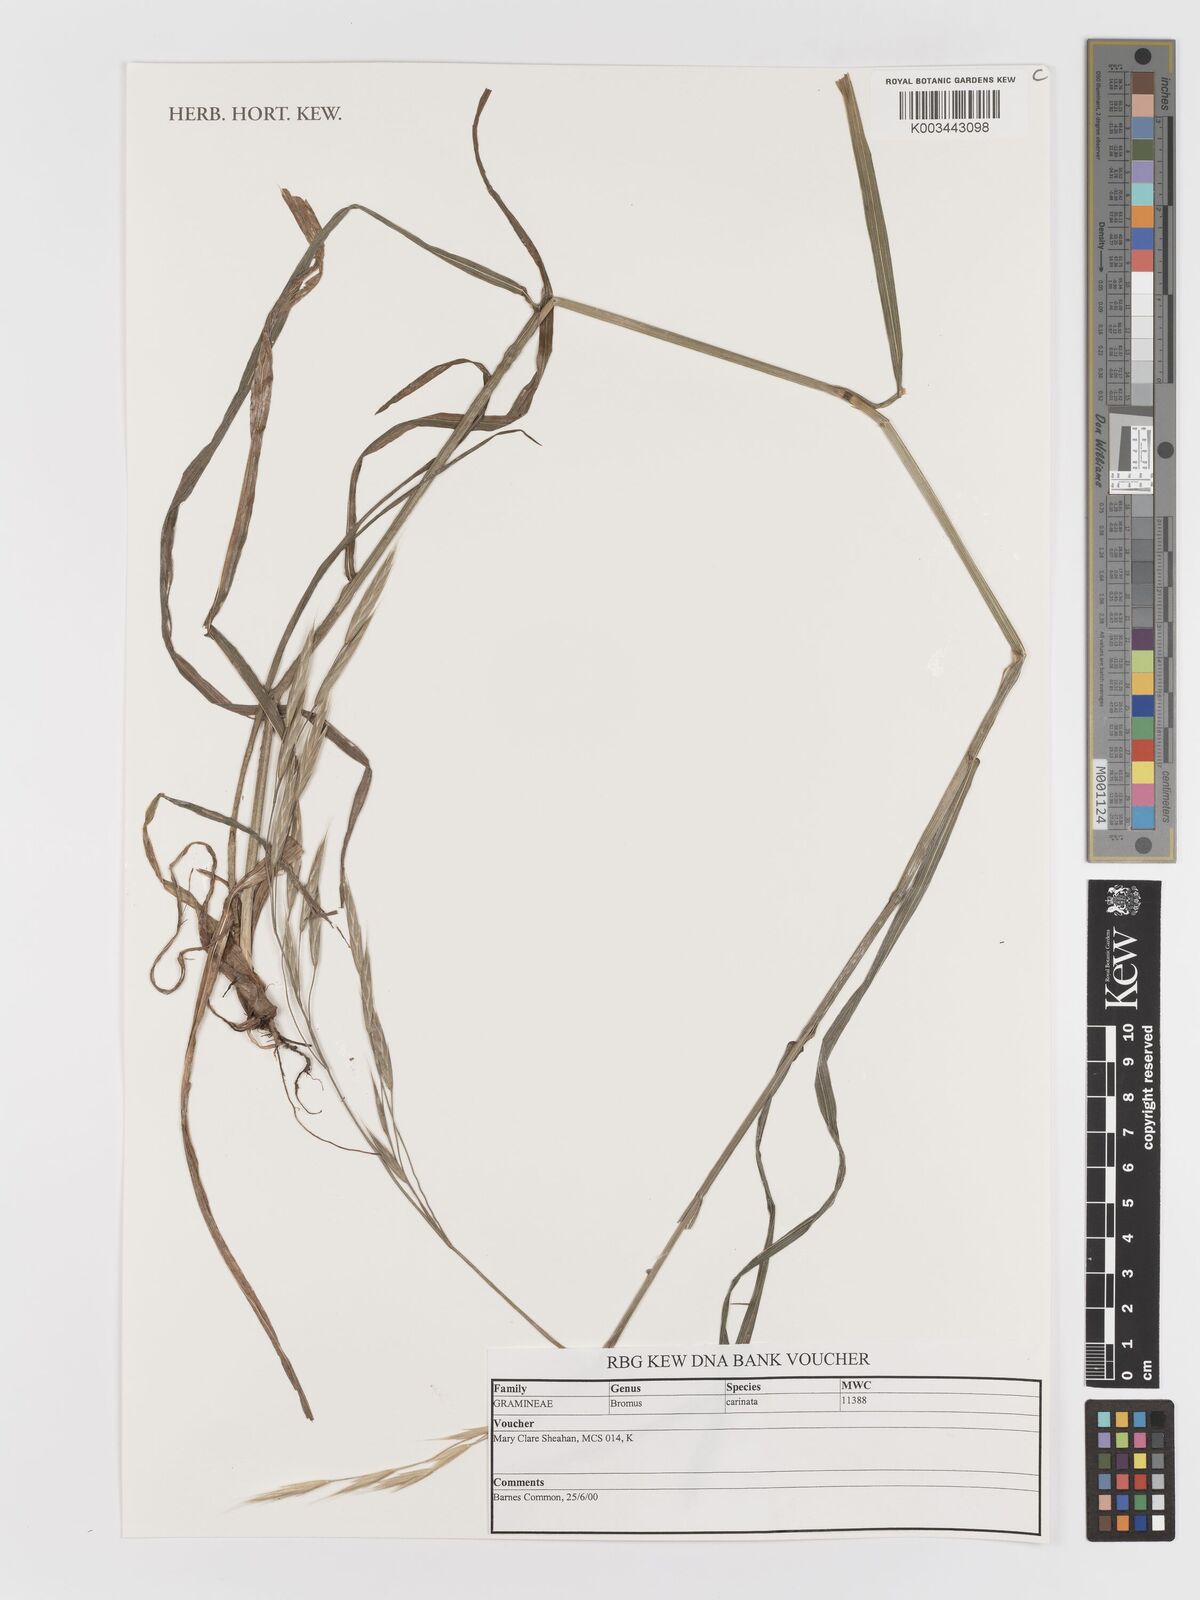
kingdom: Plantae
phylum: Tracheophyta
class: Liliopsida
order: Poales
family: Poaceae
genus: Bromus
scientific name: Bromus carinatus
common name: Mountain brome
